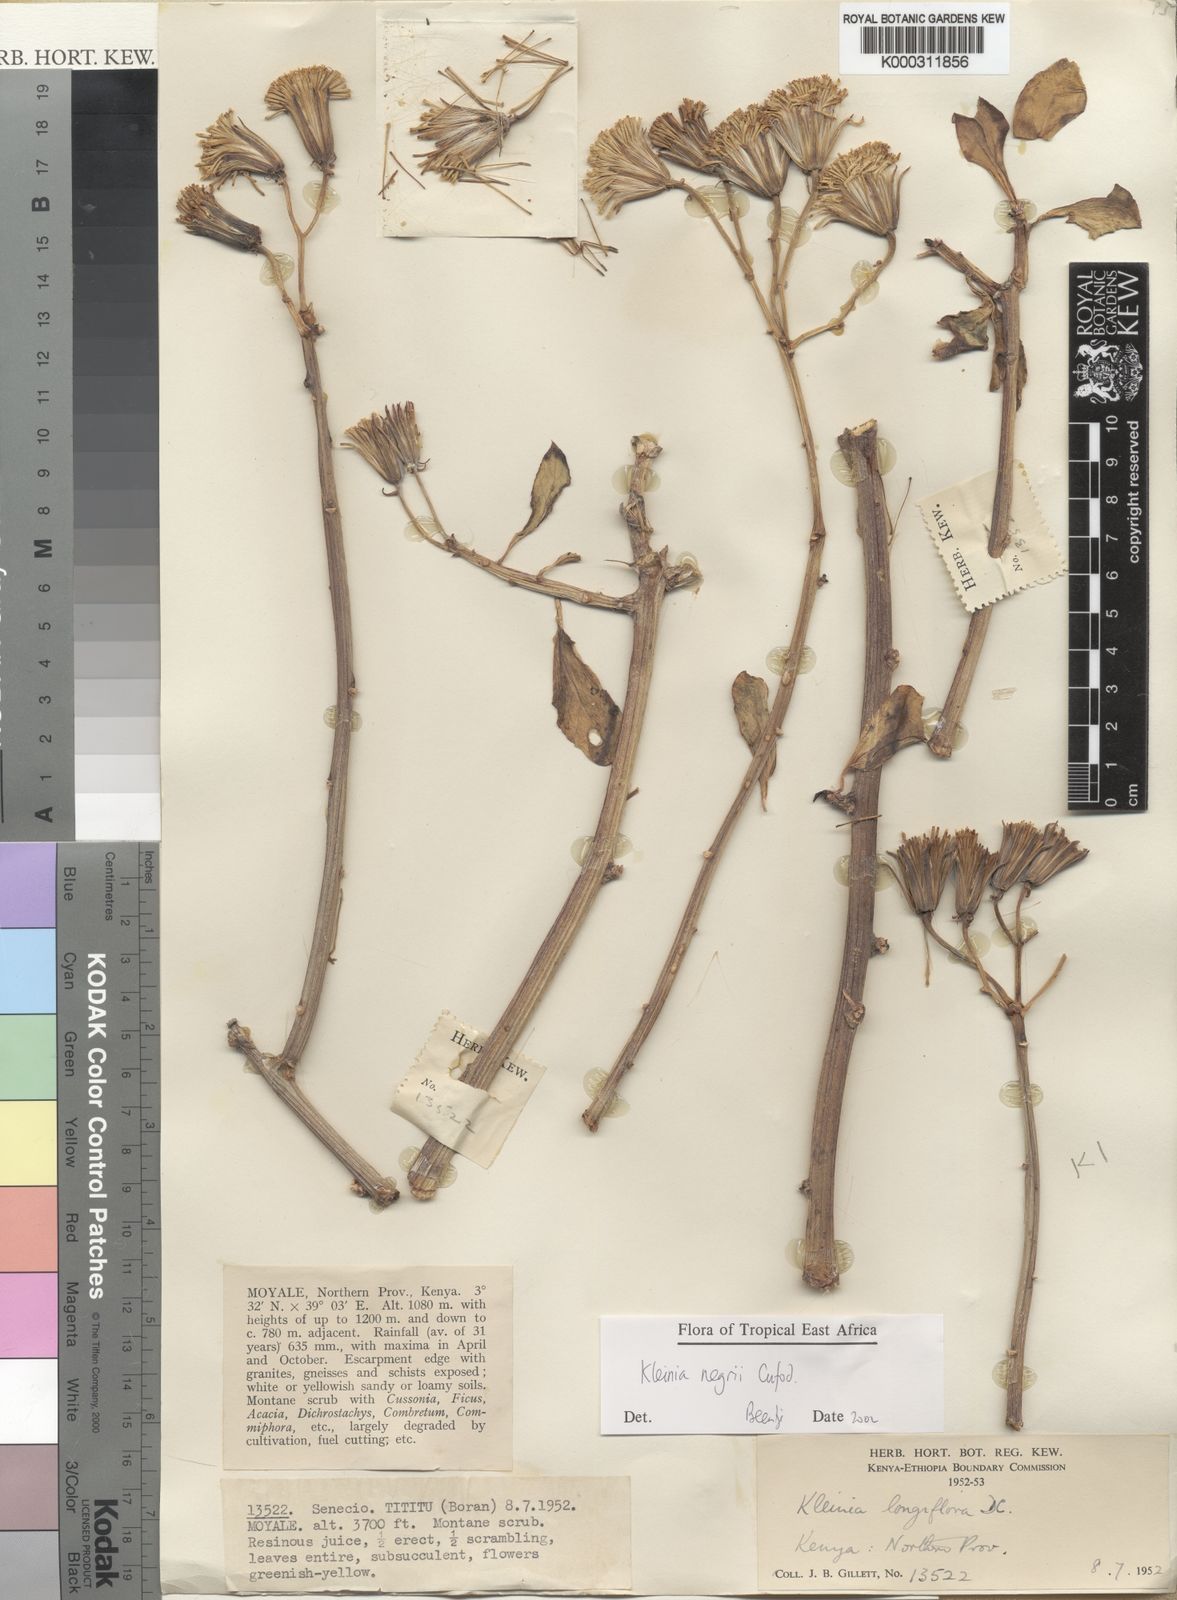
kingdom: Plantae
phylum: Tracheophyta
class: Magnoliopsida
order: Asterales
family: Asteraceae
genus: Kleinia
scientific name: Kleinia negrii
